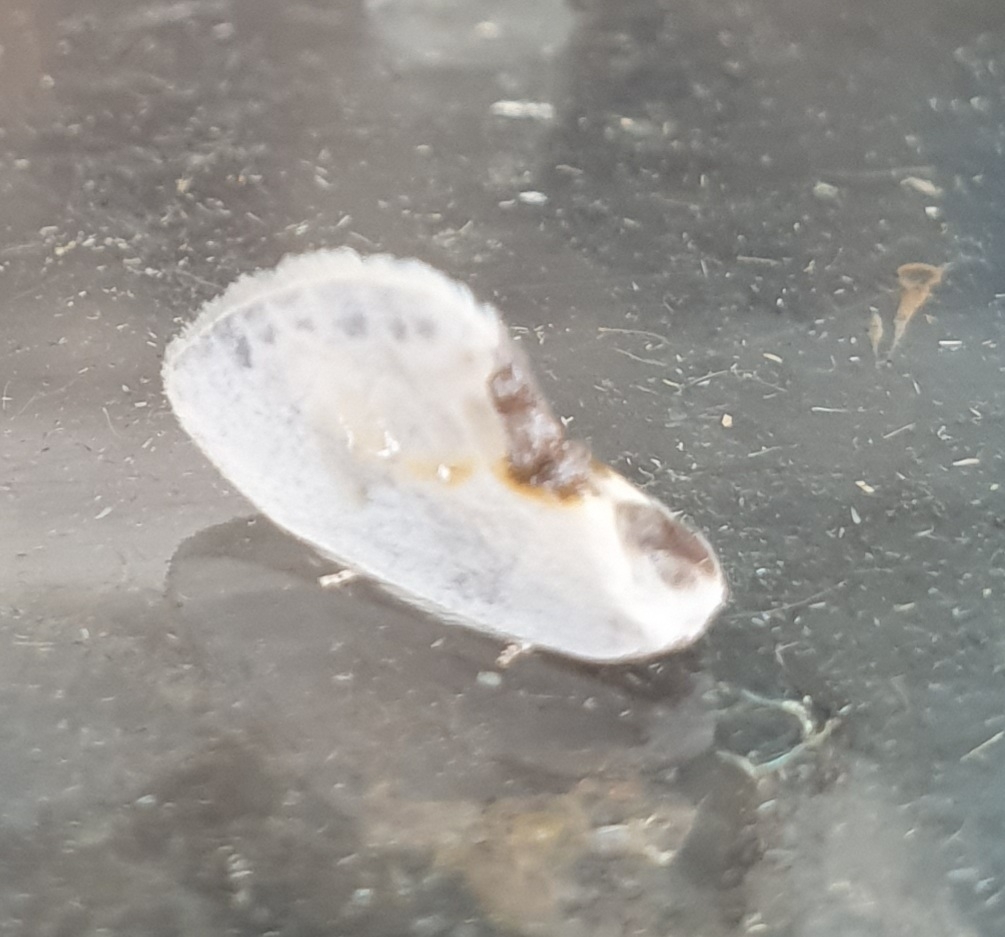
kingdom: Animalia
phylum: Arthropoda
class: Insecta
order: Lepidoptera
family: Drepanidae
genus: Cilix
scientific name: Cilix glaucata
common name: Silkevinge
